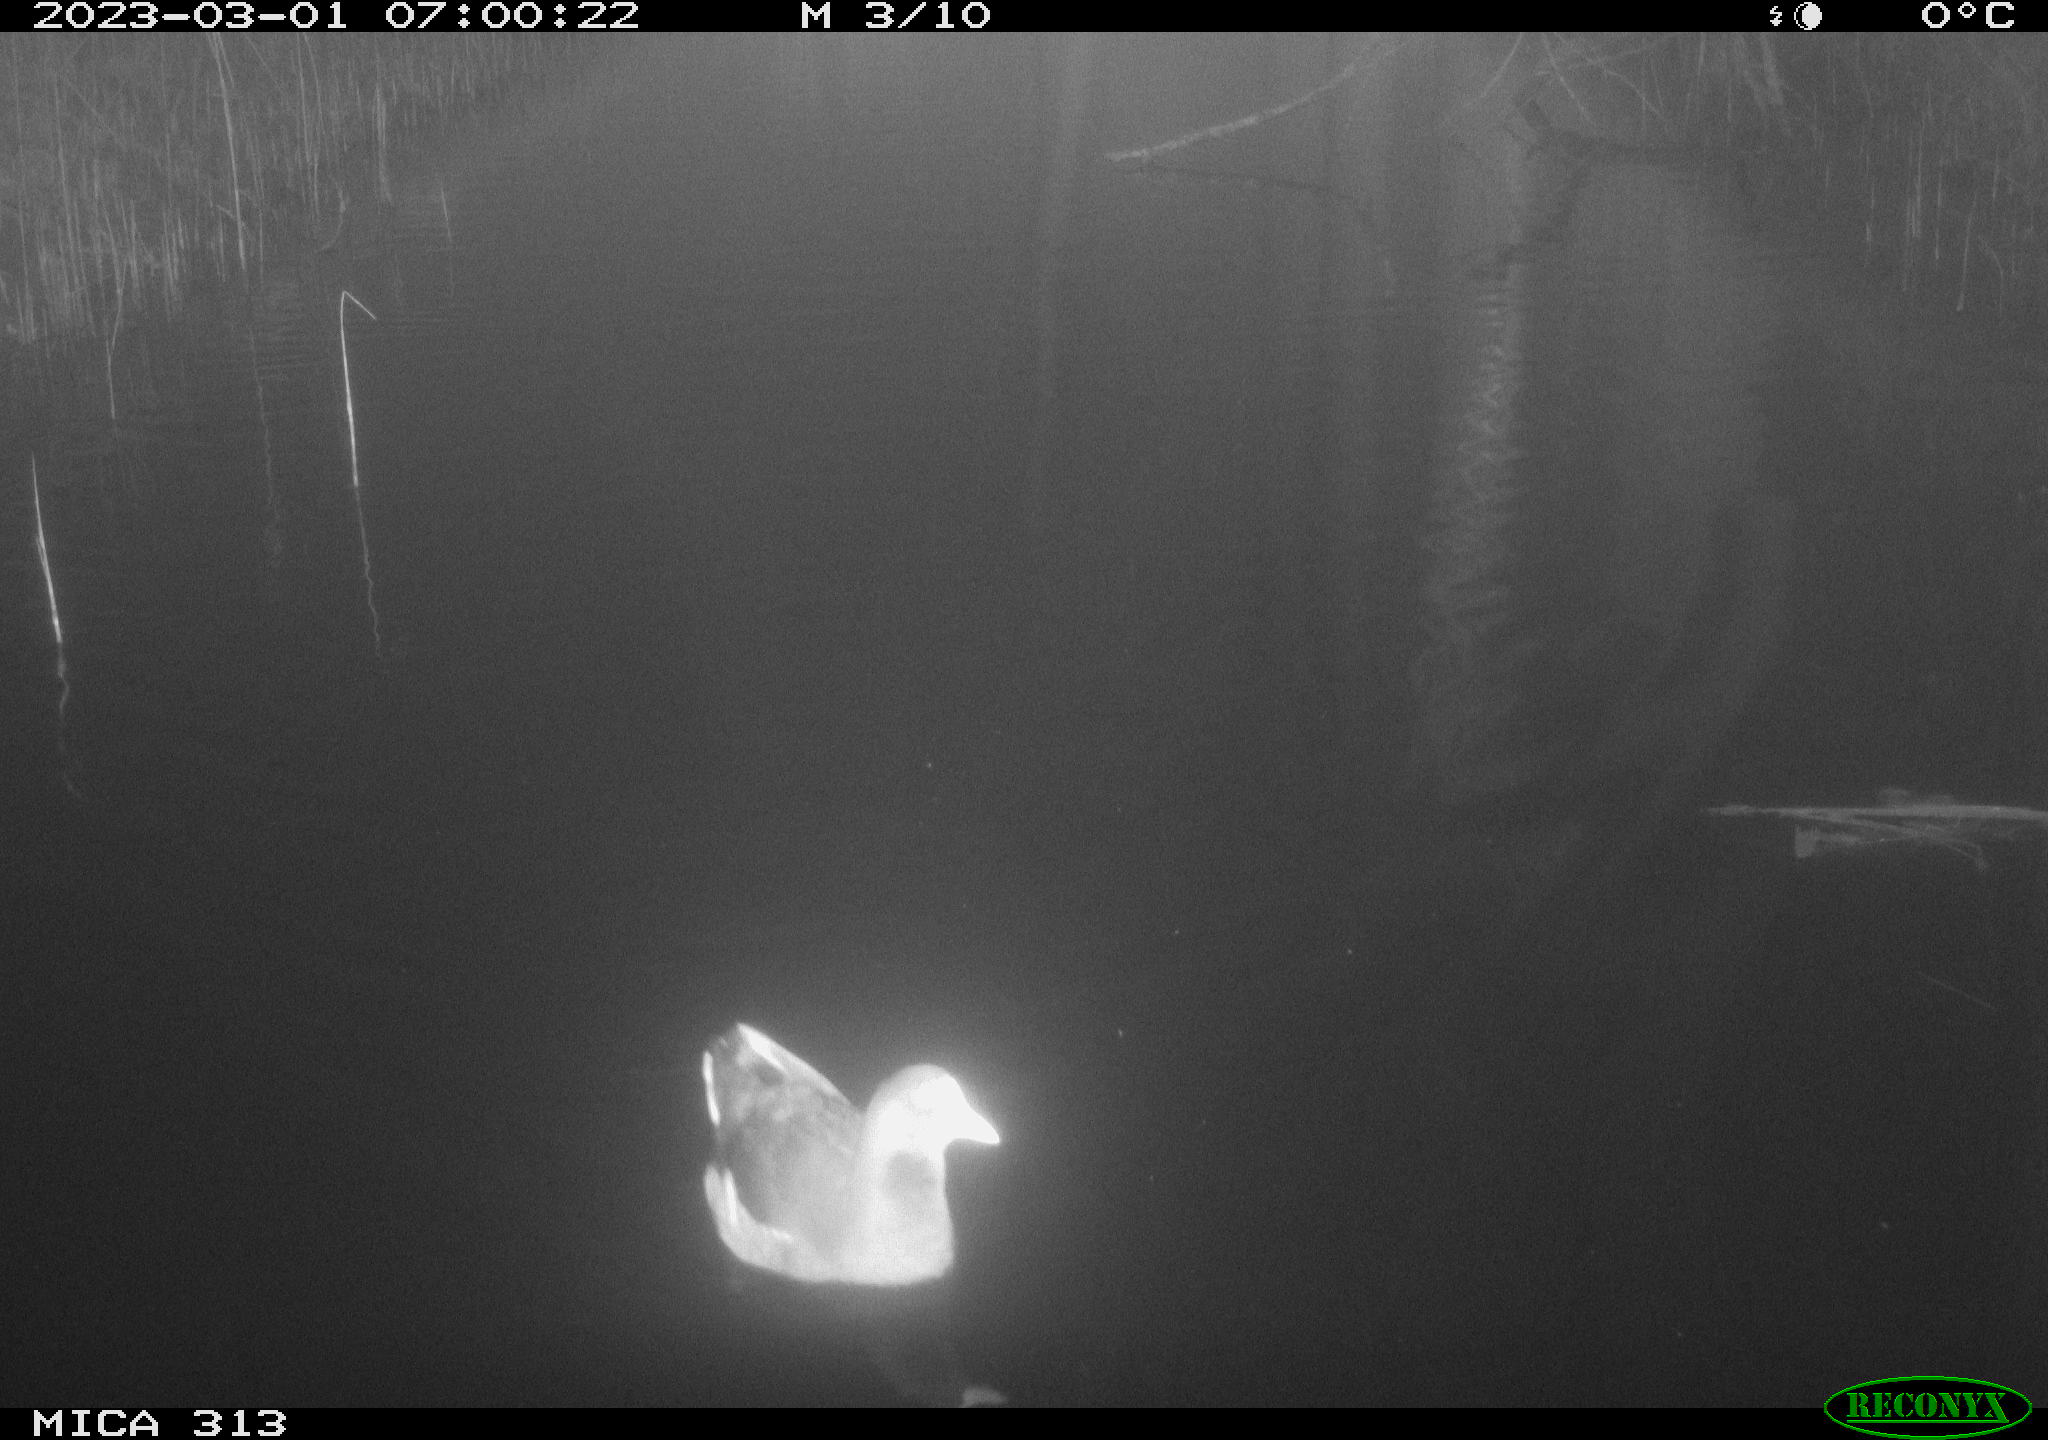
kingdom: Animalia
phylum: Chordata
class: Aves
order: Gruiformes
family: Rallidae
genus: Gallinula
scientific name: Gallinula chloropus
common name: Common moorhen
